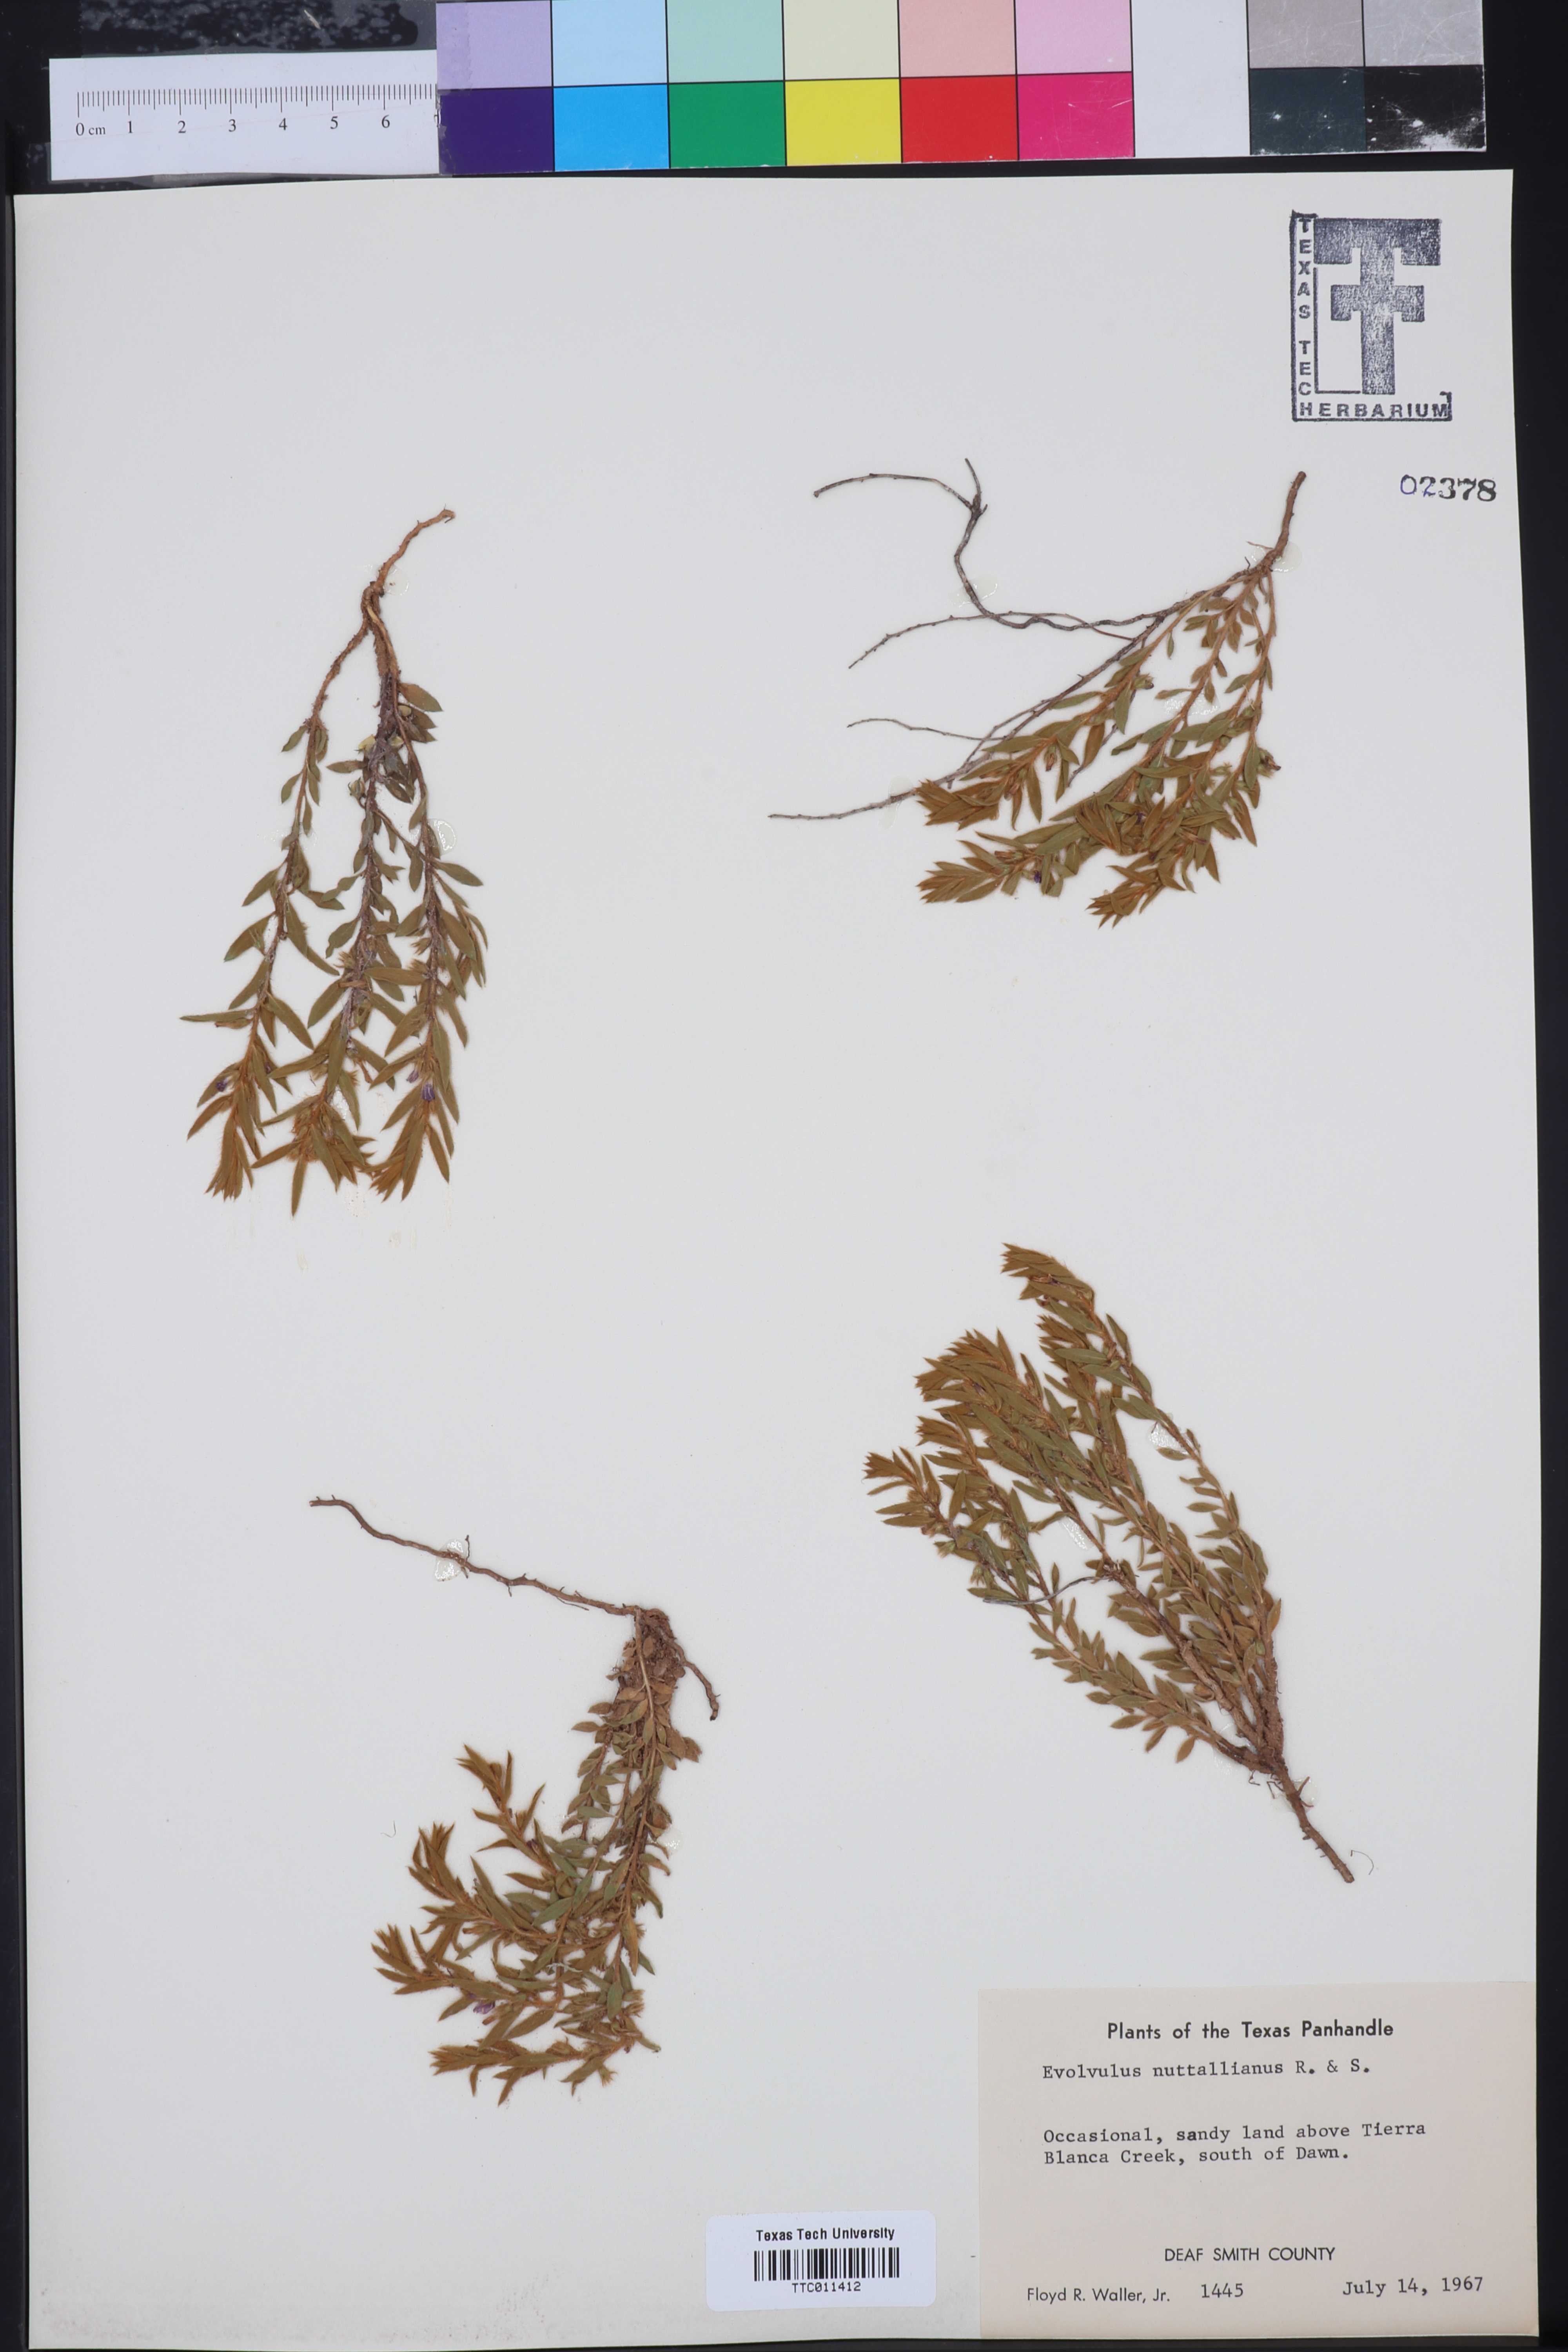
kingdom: Plantae
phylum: Tracheophyta
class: Magnoliopsida
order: Solanales
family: Convolvulaceae
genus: Evolvulus
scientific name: Evolvulus nuttallianus
